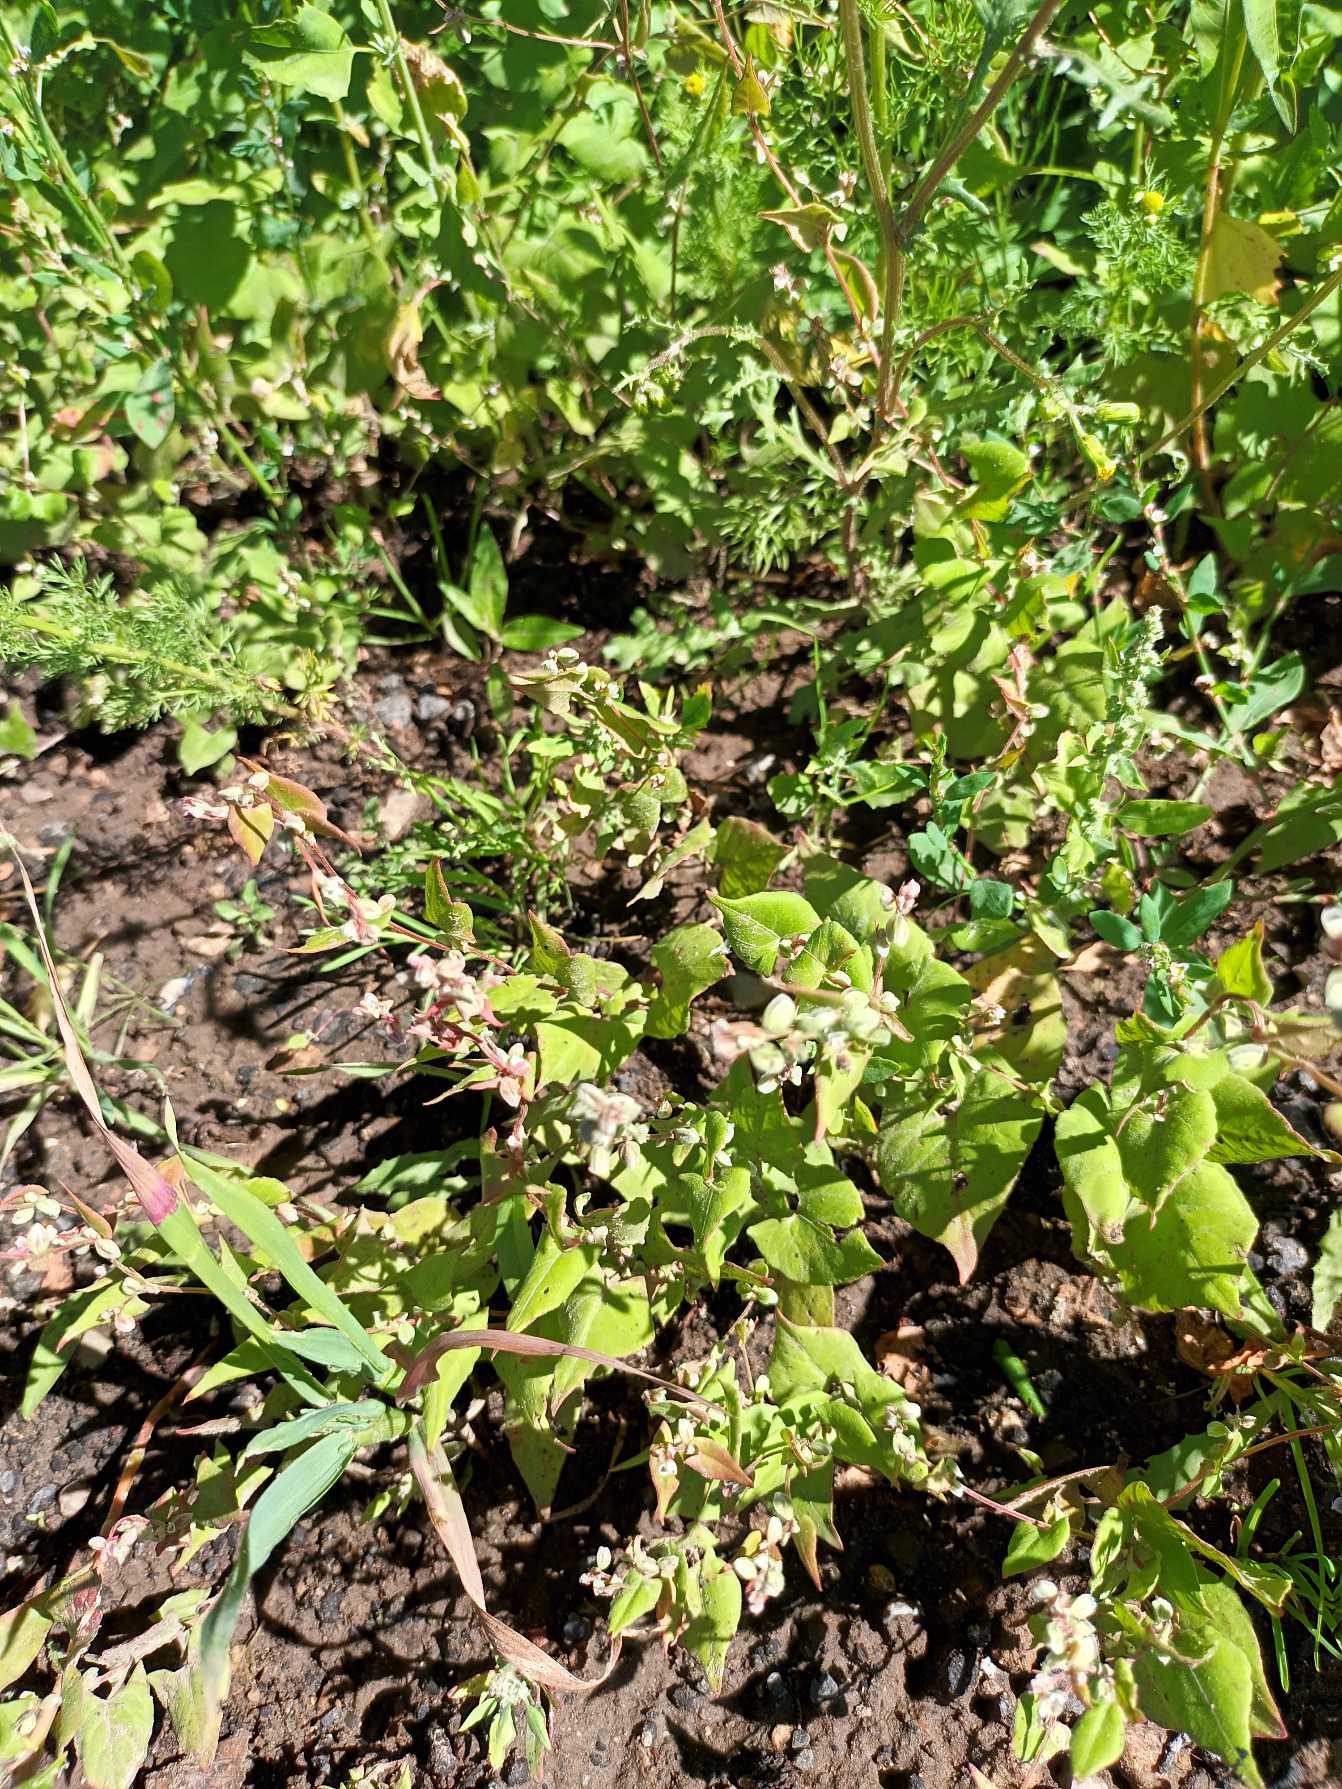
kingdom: Plantae
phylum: Tracheophyta
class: Magnoliopsida
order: Caryophyllales
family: Polygonaceae
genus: Fallopia
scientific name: Fallopia convolvulus
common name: Snerle-pileurt
